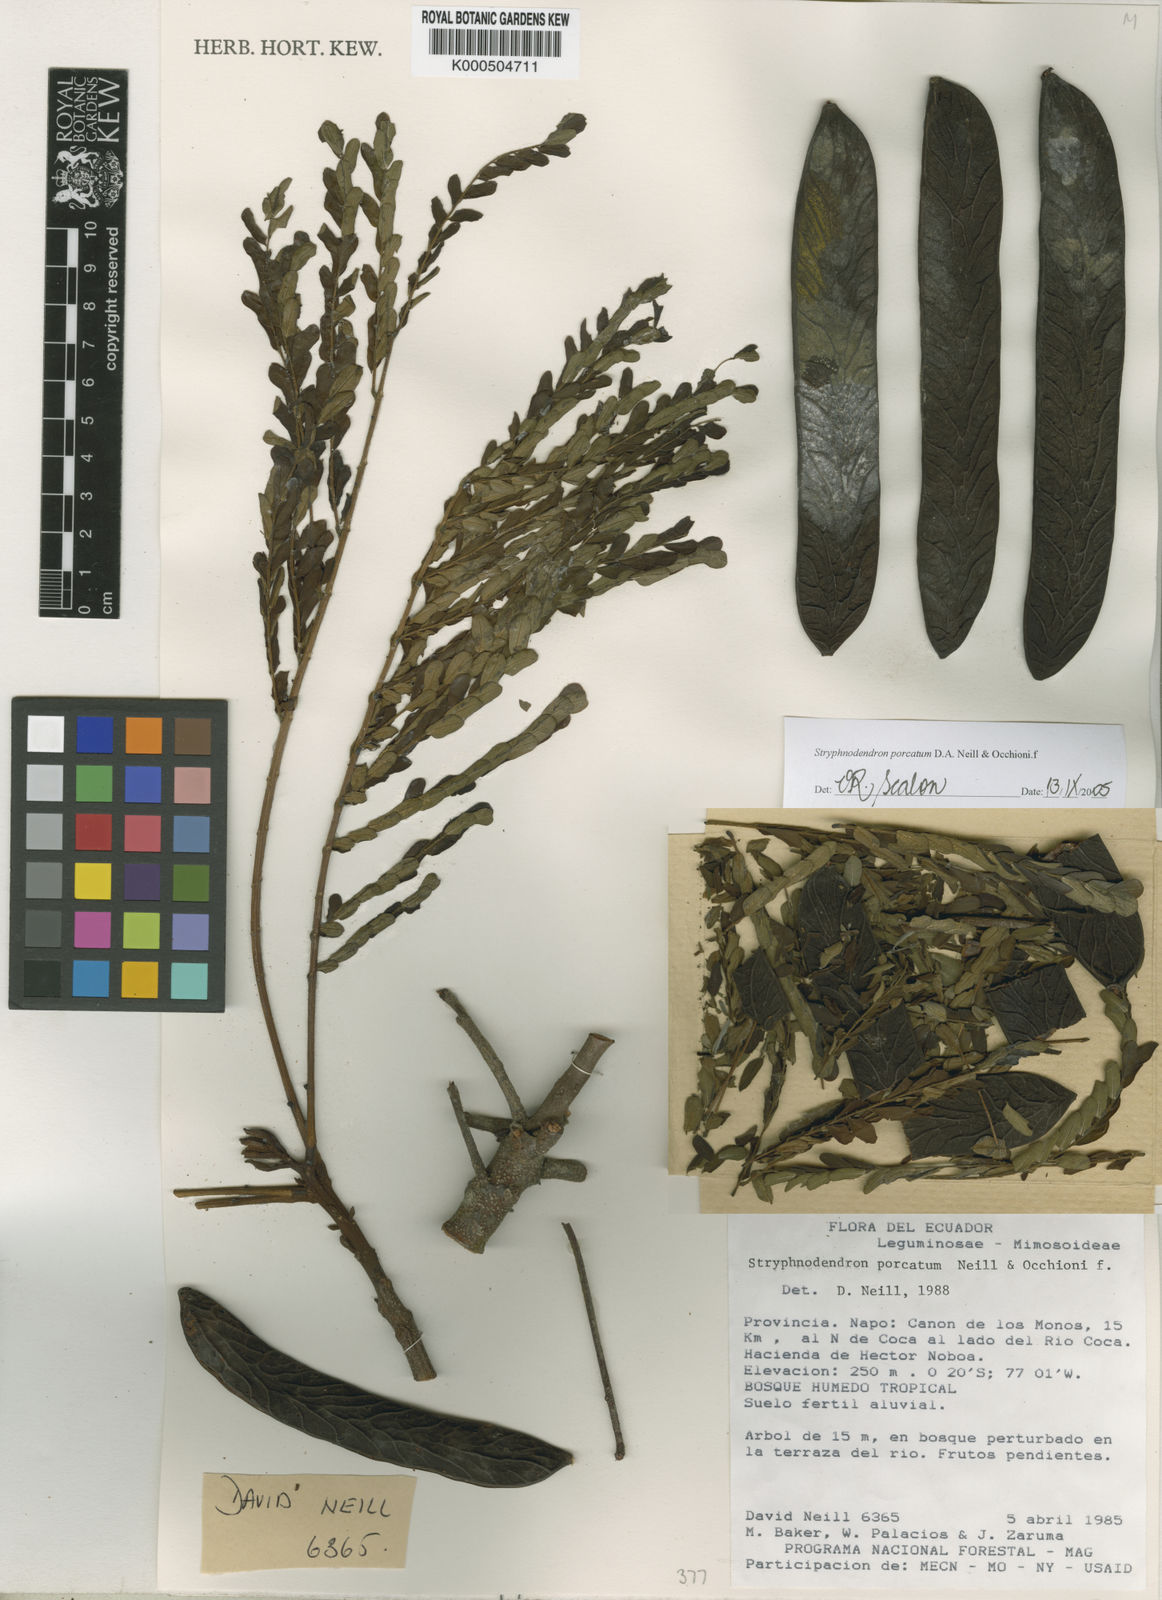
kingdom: Plantae
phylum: Tracheophyta
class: Magnoliopsida
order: Fabales
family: Fabaceae
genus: Stryphnodendron
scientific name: Stryphnodendron porcatum
